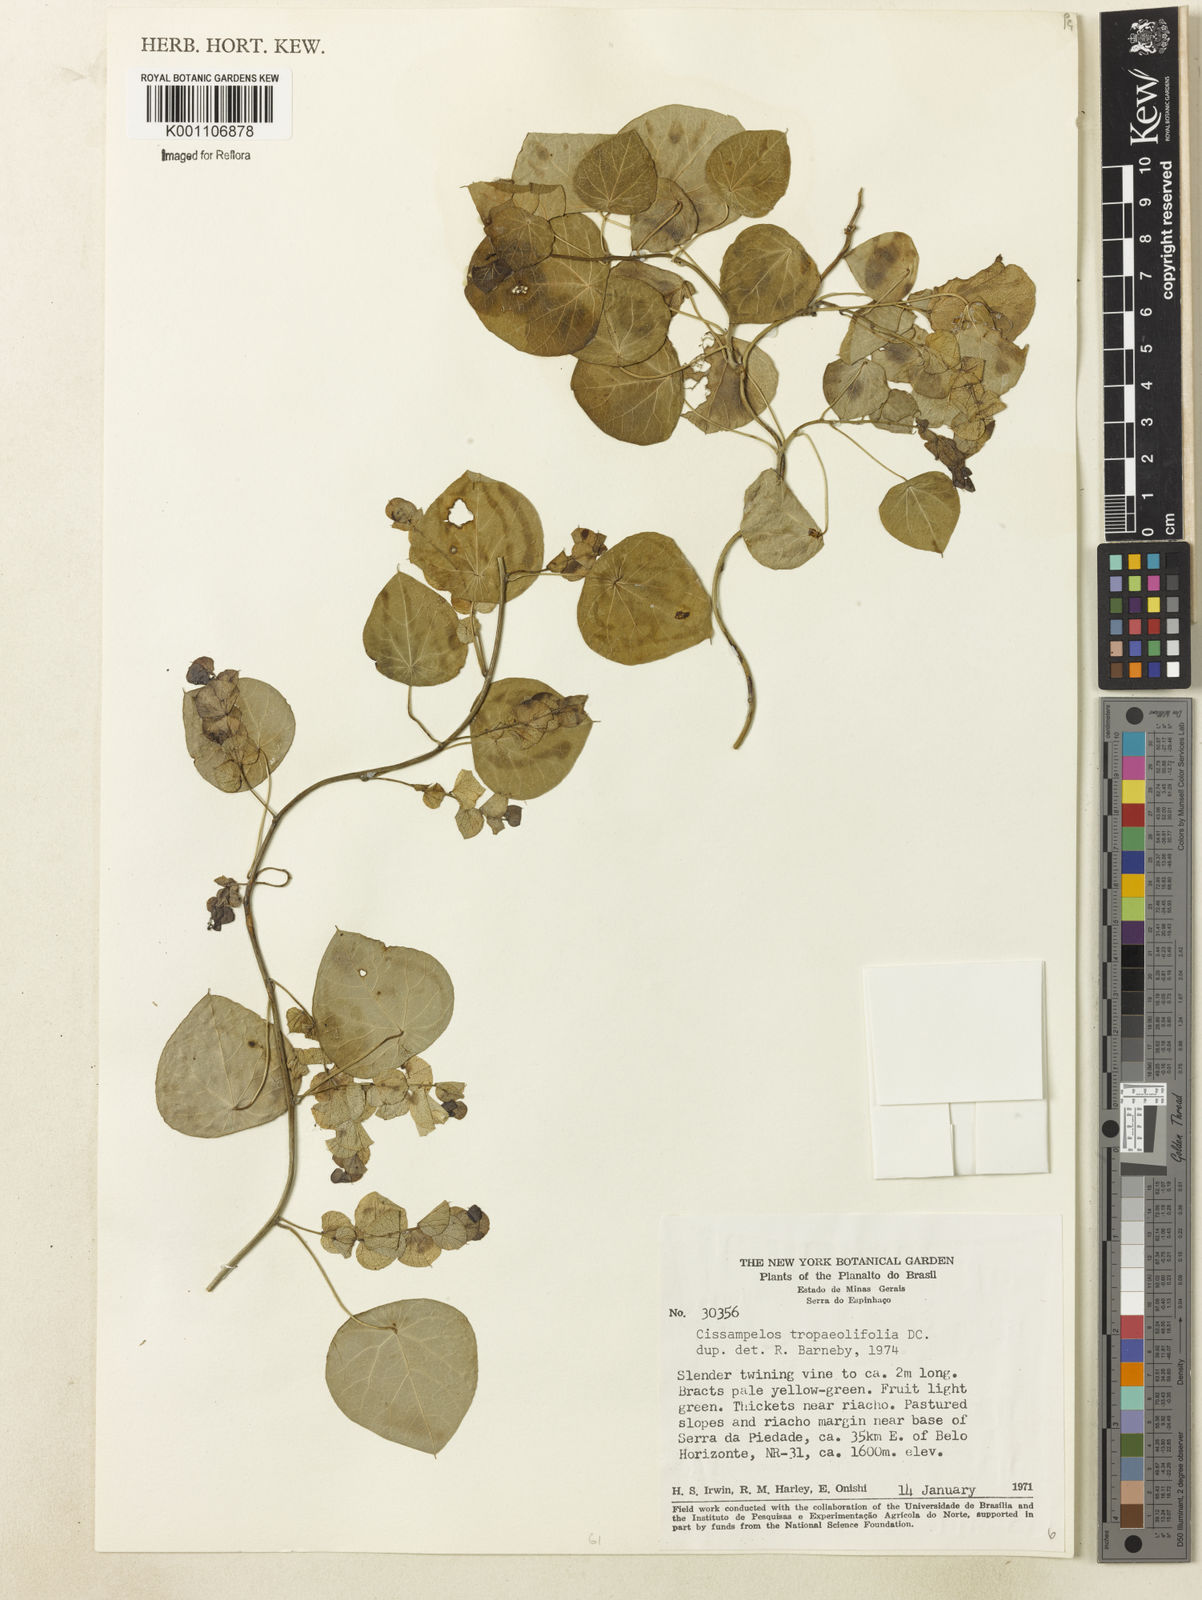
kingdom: Plantae
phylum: Tracheophyta
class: Magnoliopsida
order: Ranunculales
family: Menispermaceae
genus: Cissampelos
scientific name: Cissampelos tropaeolifolia
